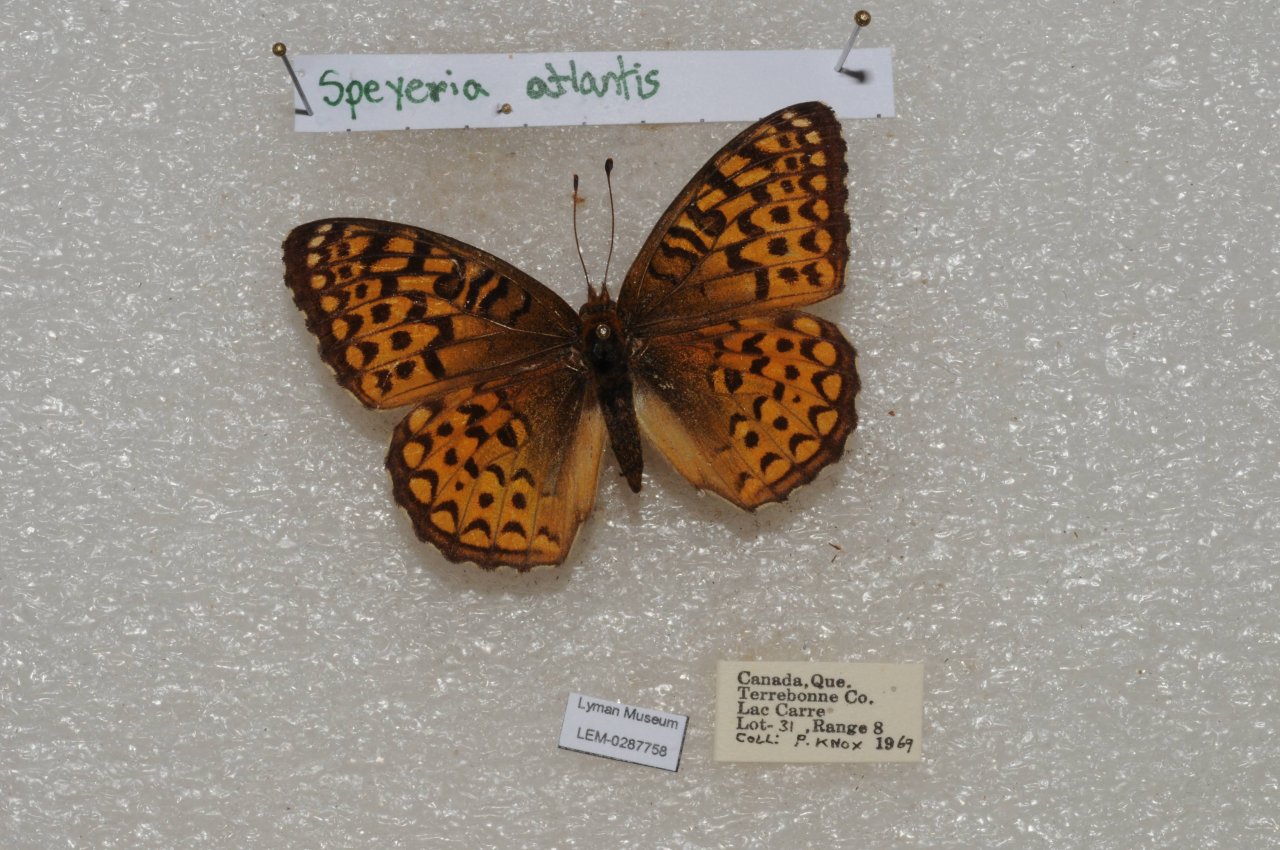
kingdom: Animalia
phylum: Arthropoda
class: Insecta
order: Lepidoptera
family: Nymphalidae
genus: Speyeria
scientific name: Speyeria atlantis
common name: Atlantis Fritillary
